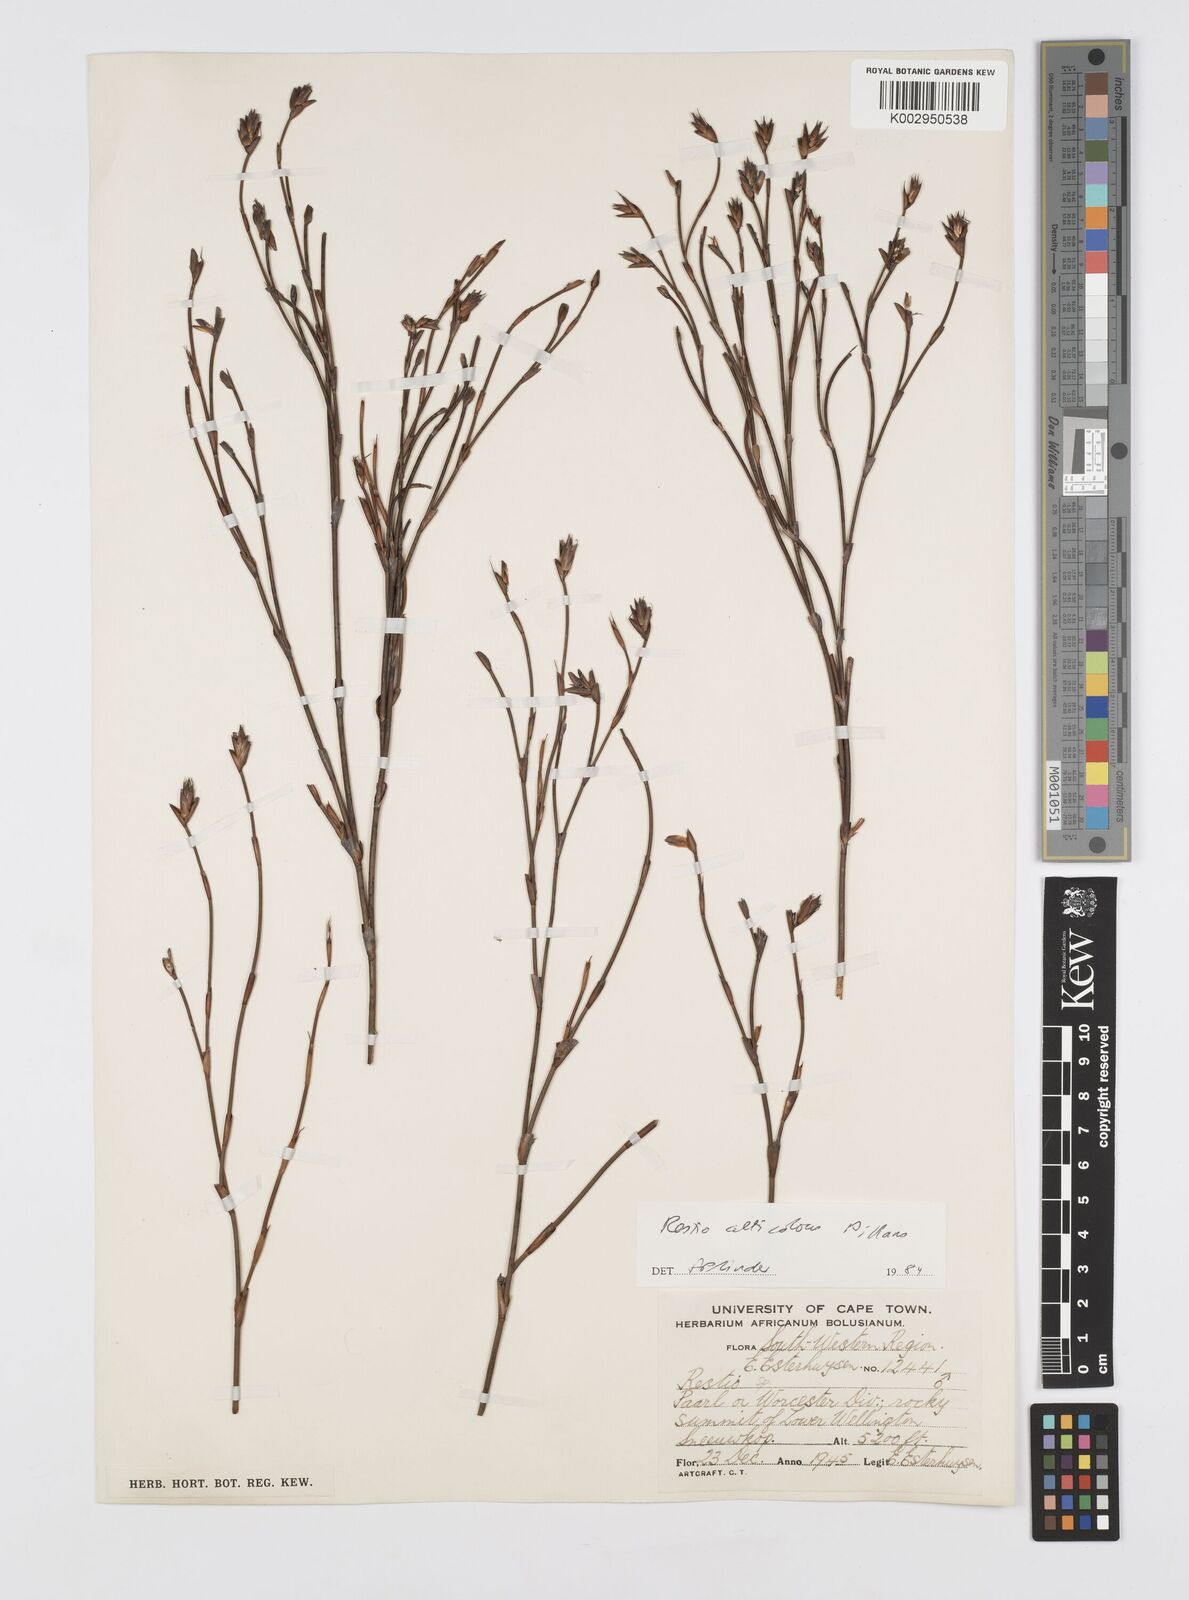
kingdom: Plantae
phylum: Tracheophyta
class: Liliopsida
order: Poales
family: Restionaceae
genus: Restio
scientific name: Restio alticola
